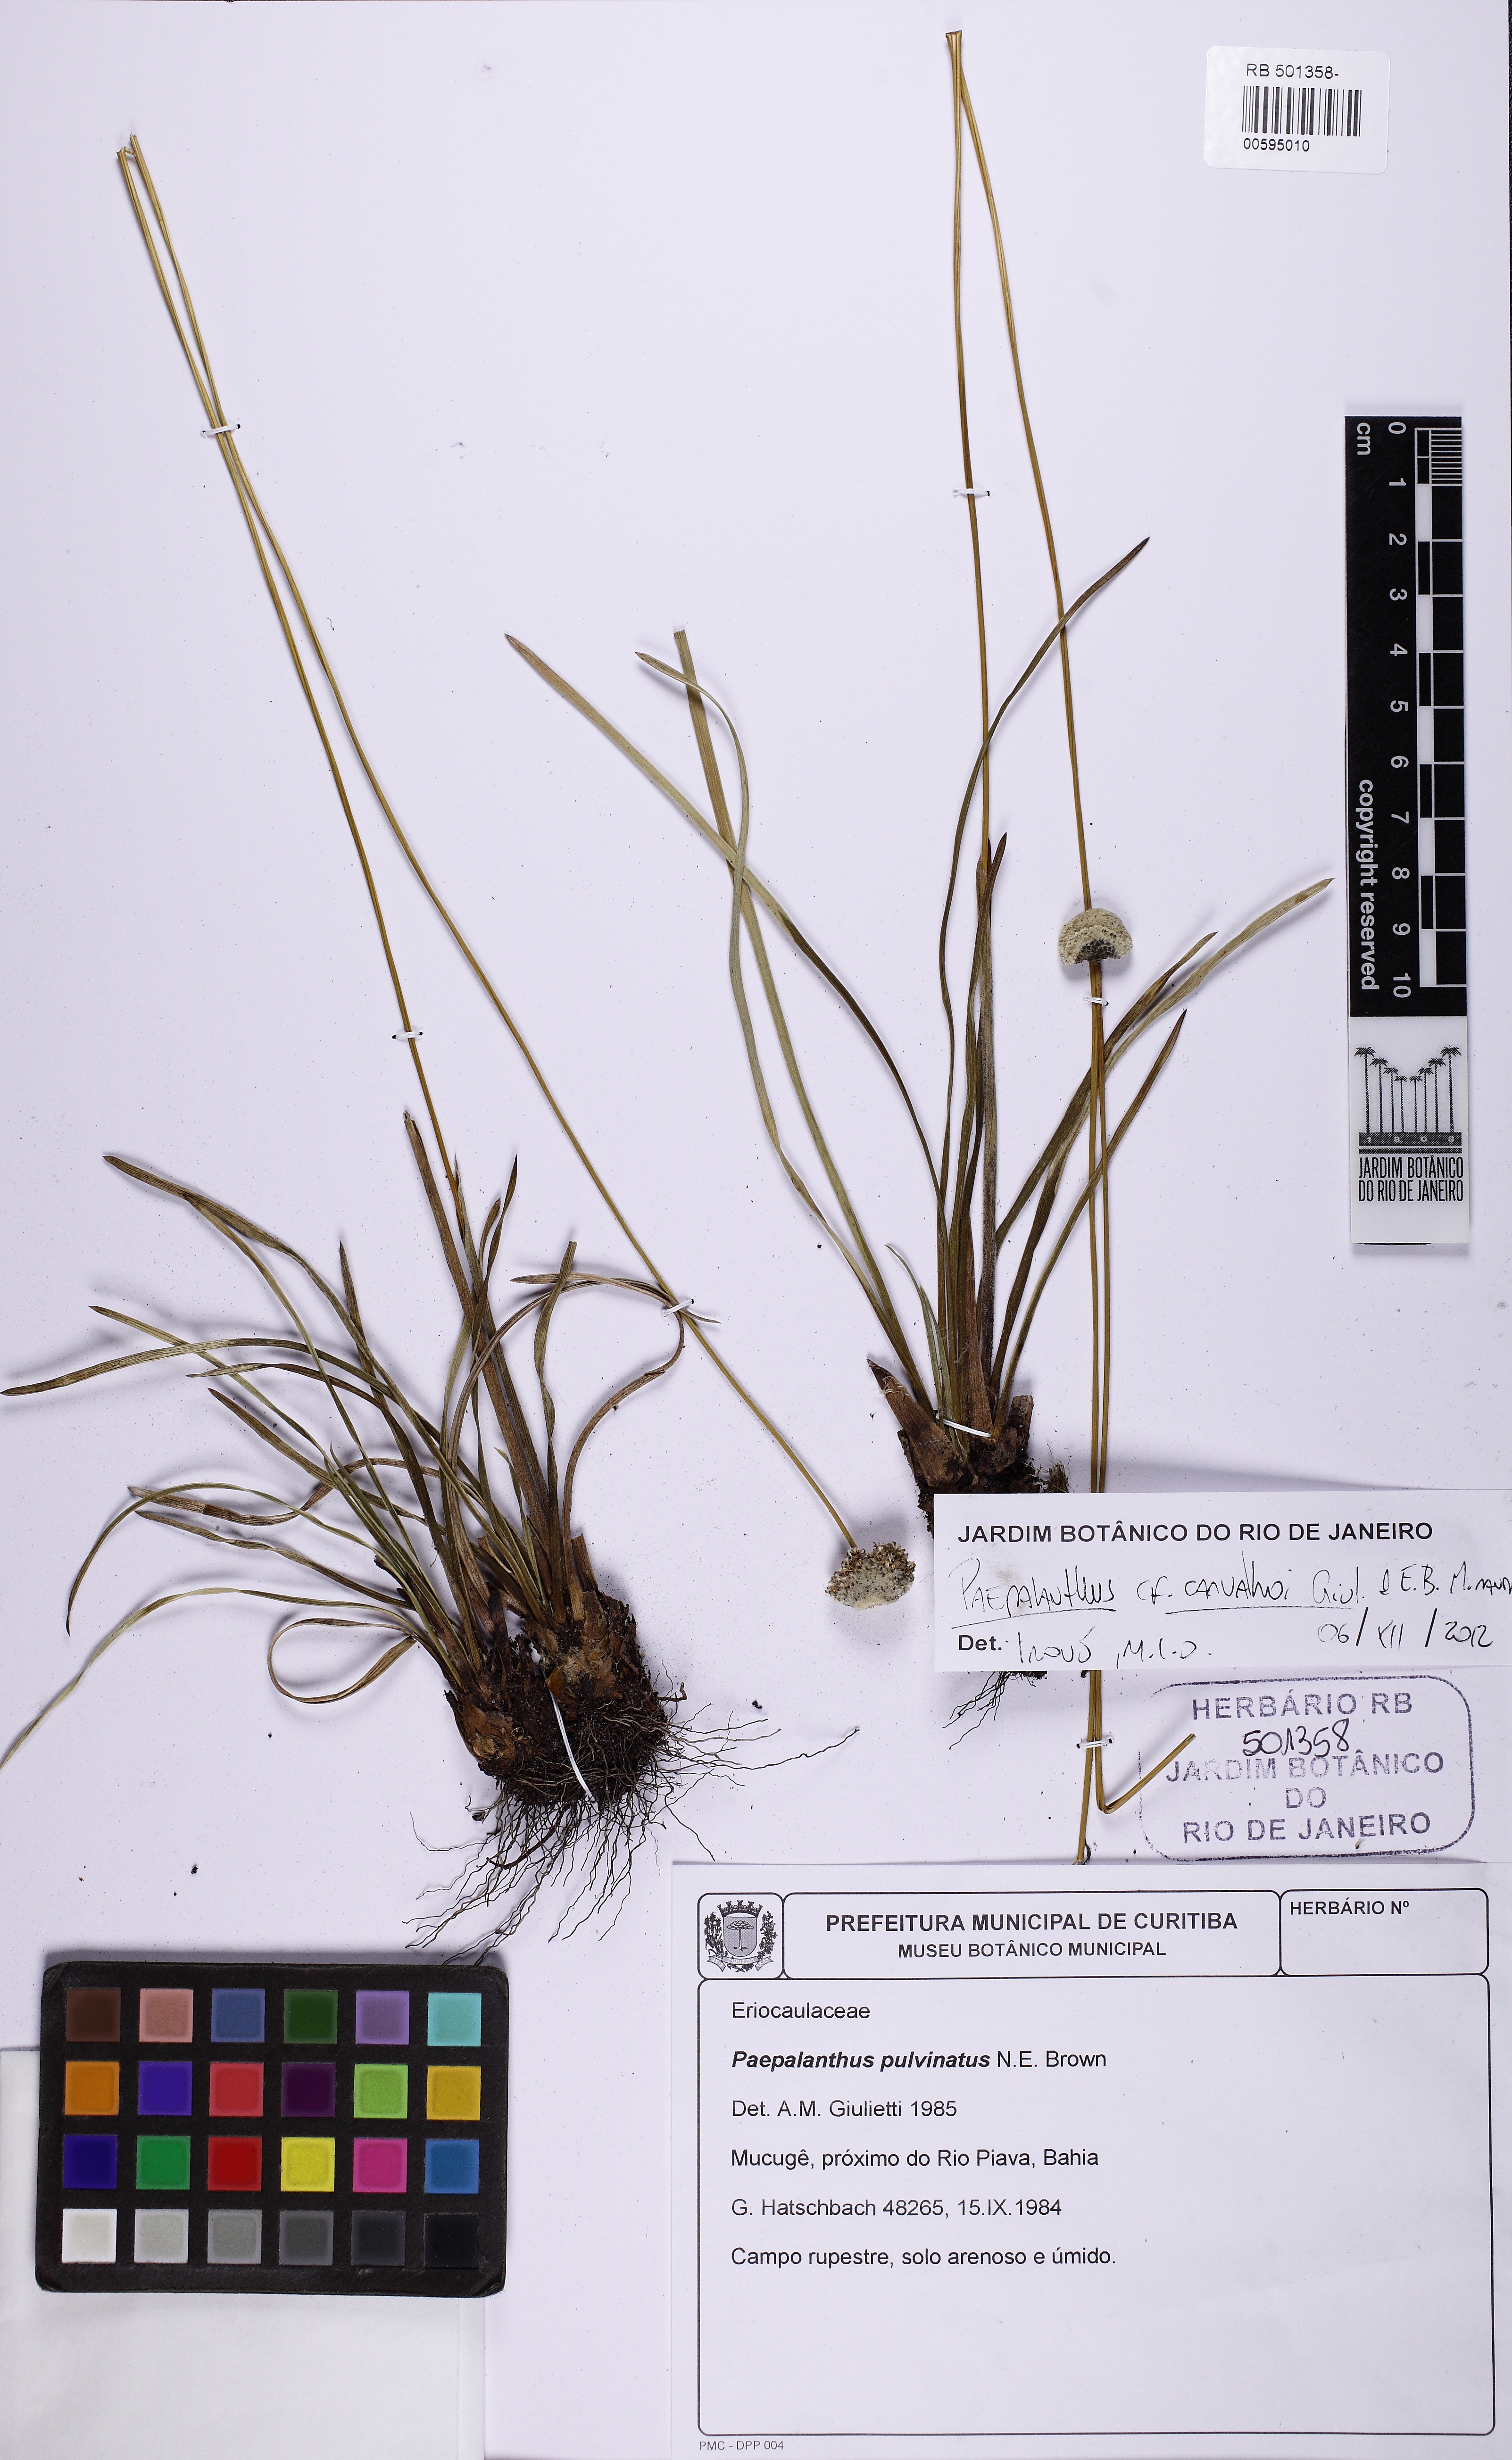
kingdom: Plantae
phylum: Tracheophyta
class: Liliopsida
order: Poales
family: Eriocaulaceae
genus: Paepalanthus
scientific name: Paepalanthus carvalhoi
